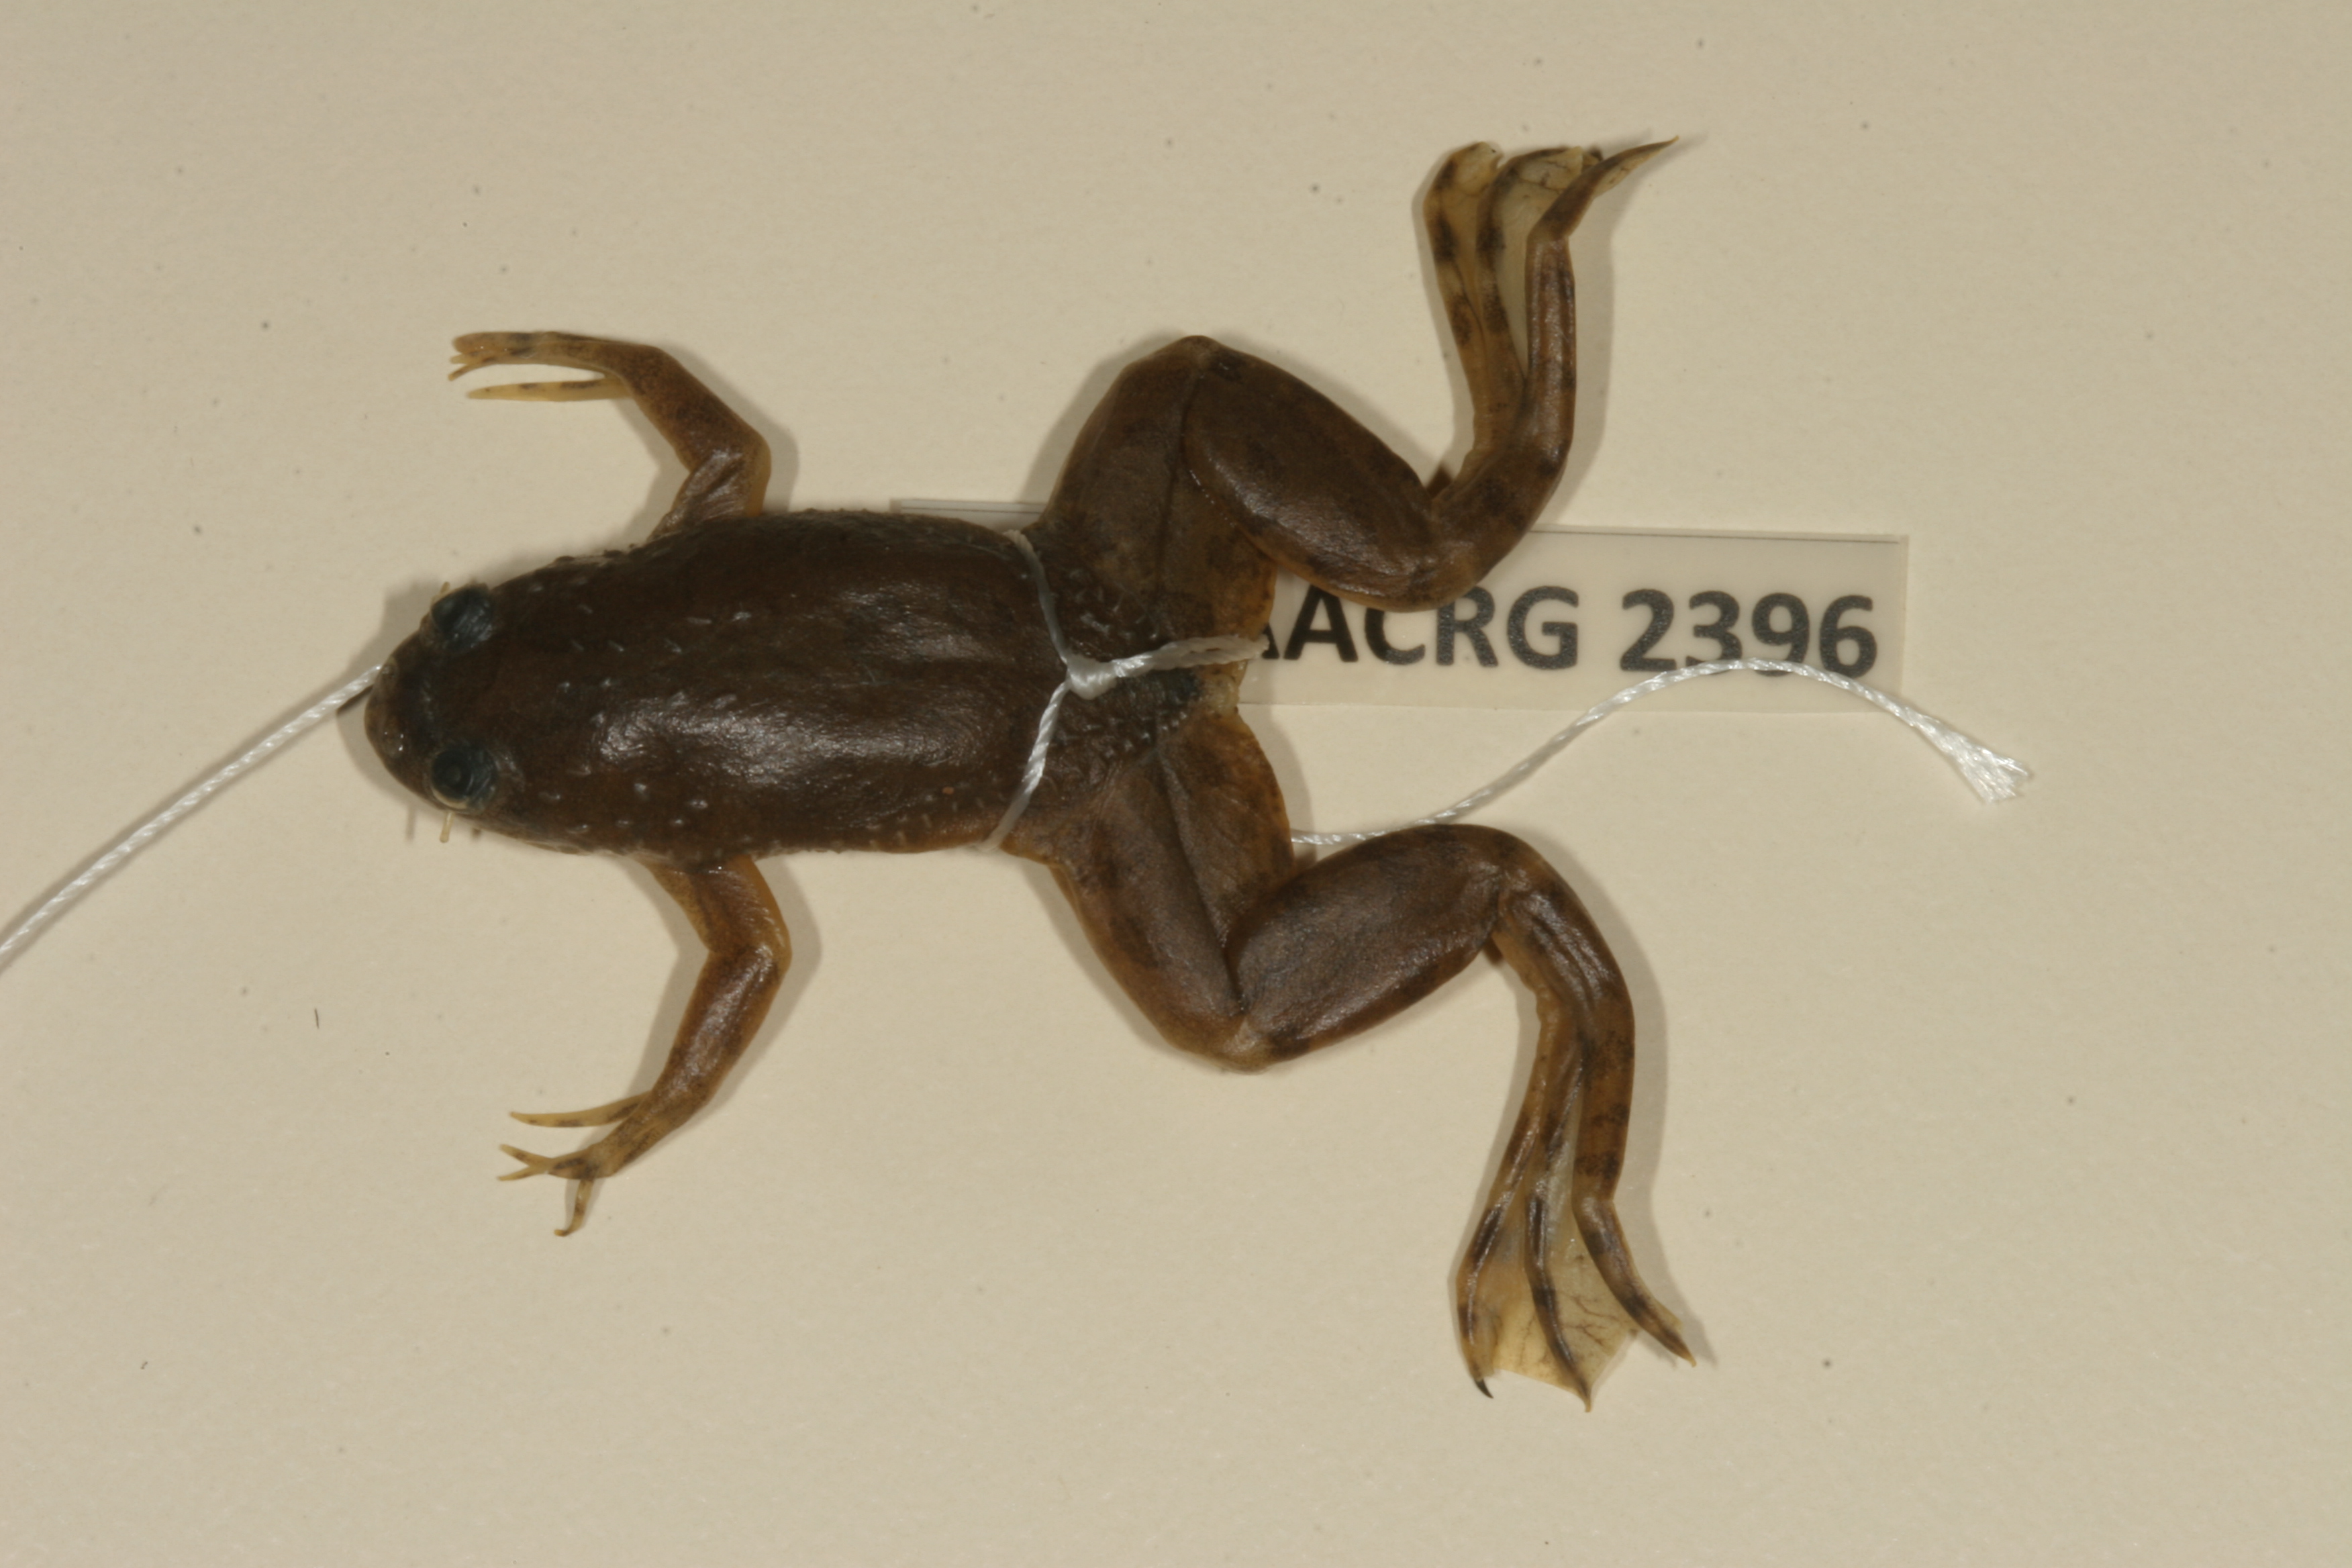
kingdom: Animalia
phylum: Chordata
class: Amphibia
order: Anura
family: Pipidae
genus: Xenopus
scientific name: Xenopus muelleri
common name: Muller's clawed frog
